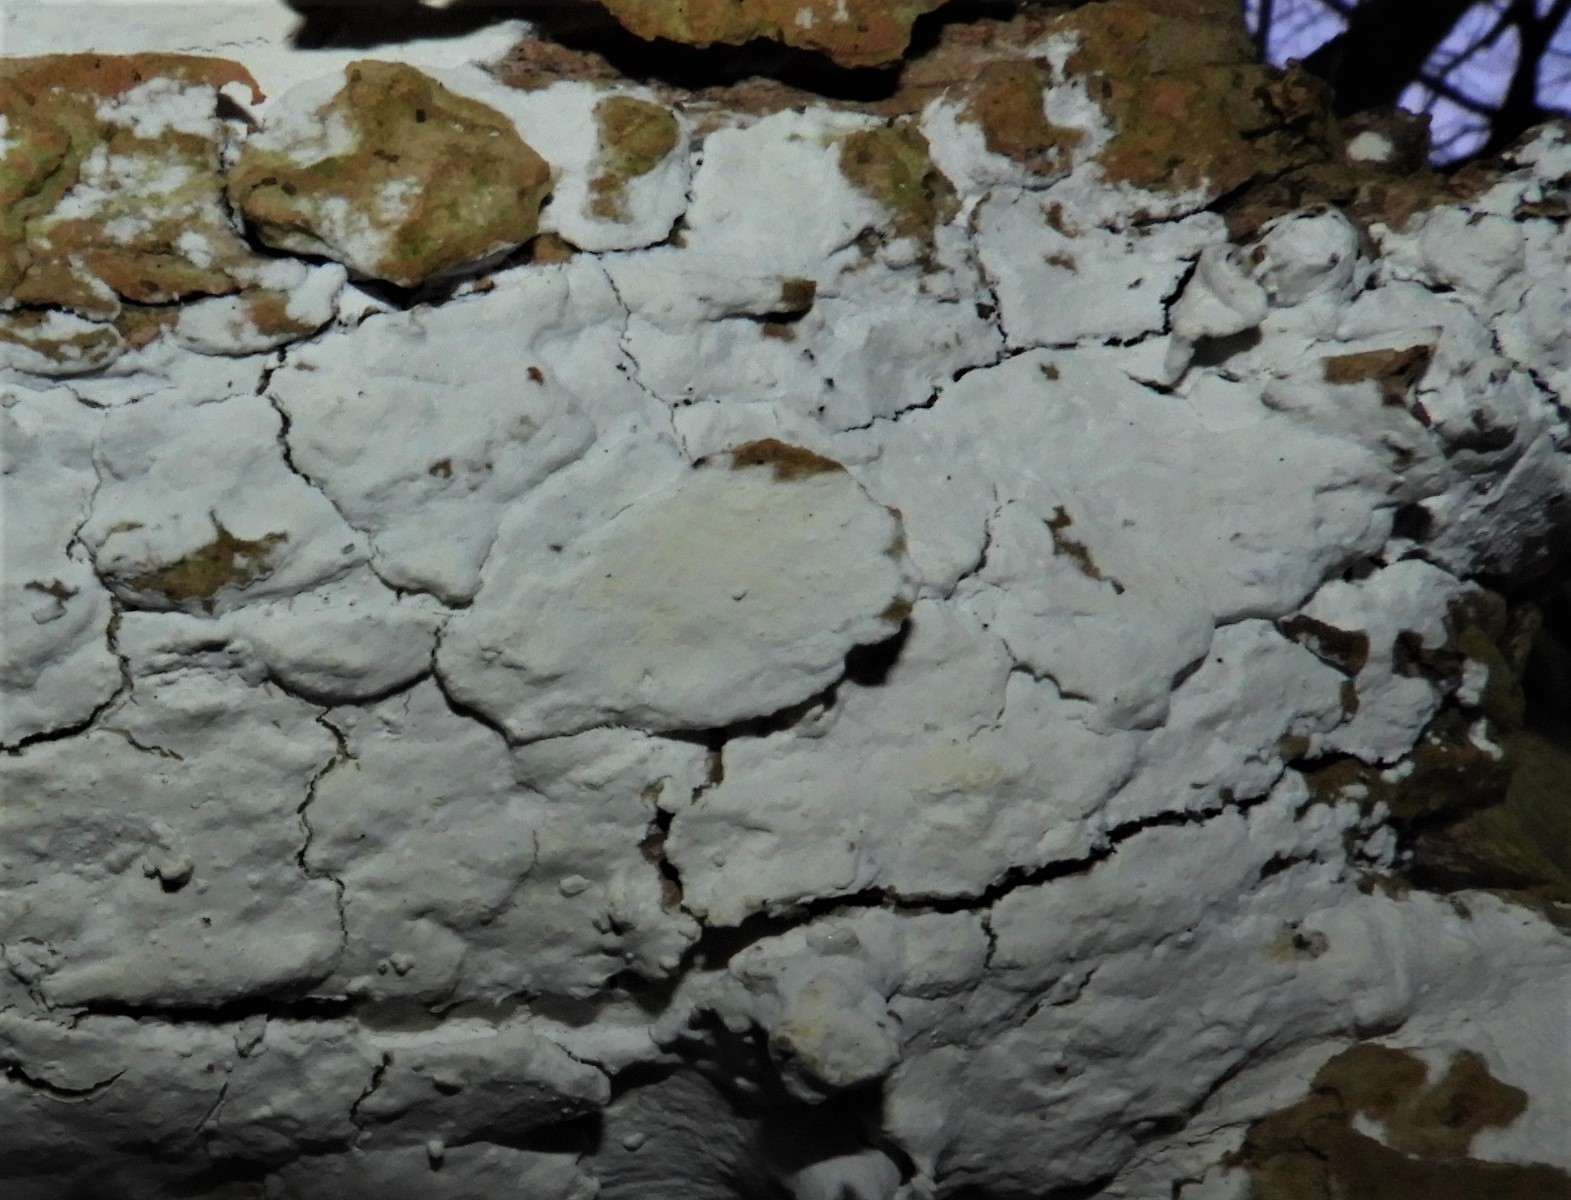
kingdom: Fungi
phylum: Basidiomycota
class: Agaricomycetes
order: Corticiales
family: Corticiaceae
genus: Lyomyces
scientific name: Lyomyces sambuci
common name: almindelig hyldehinde
